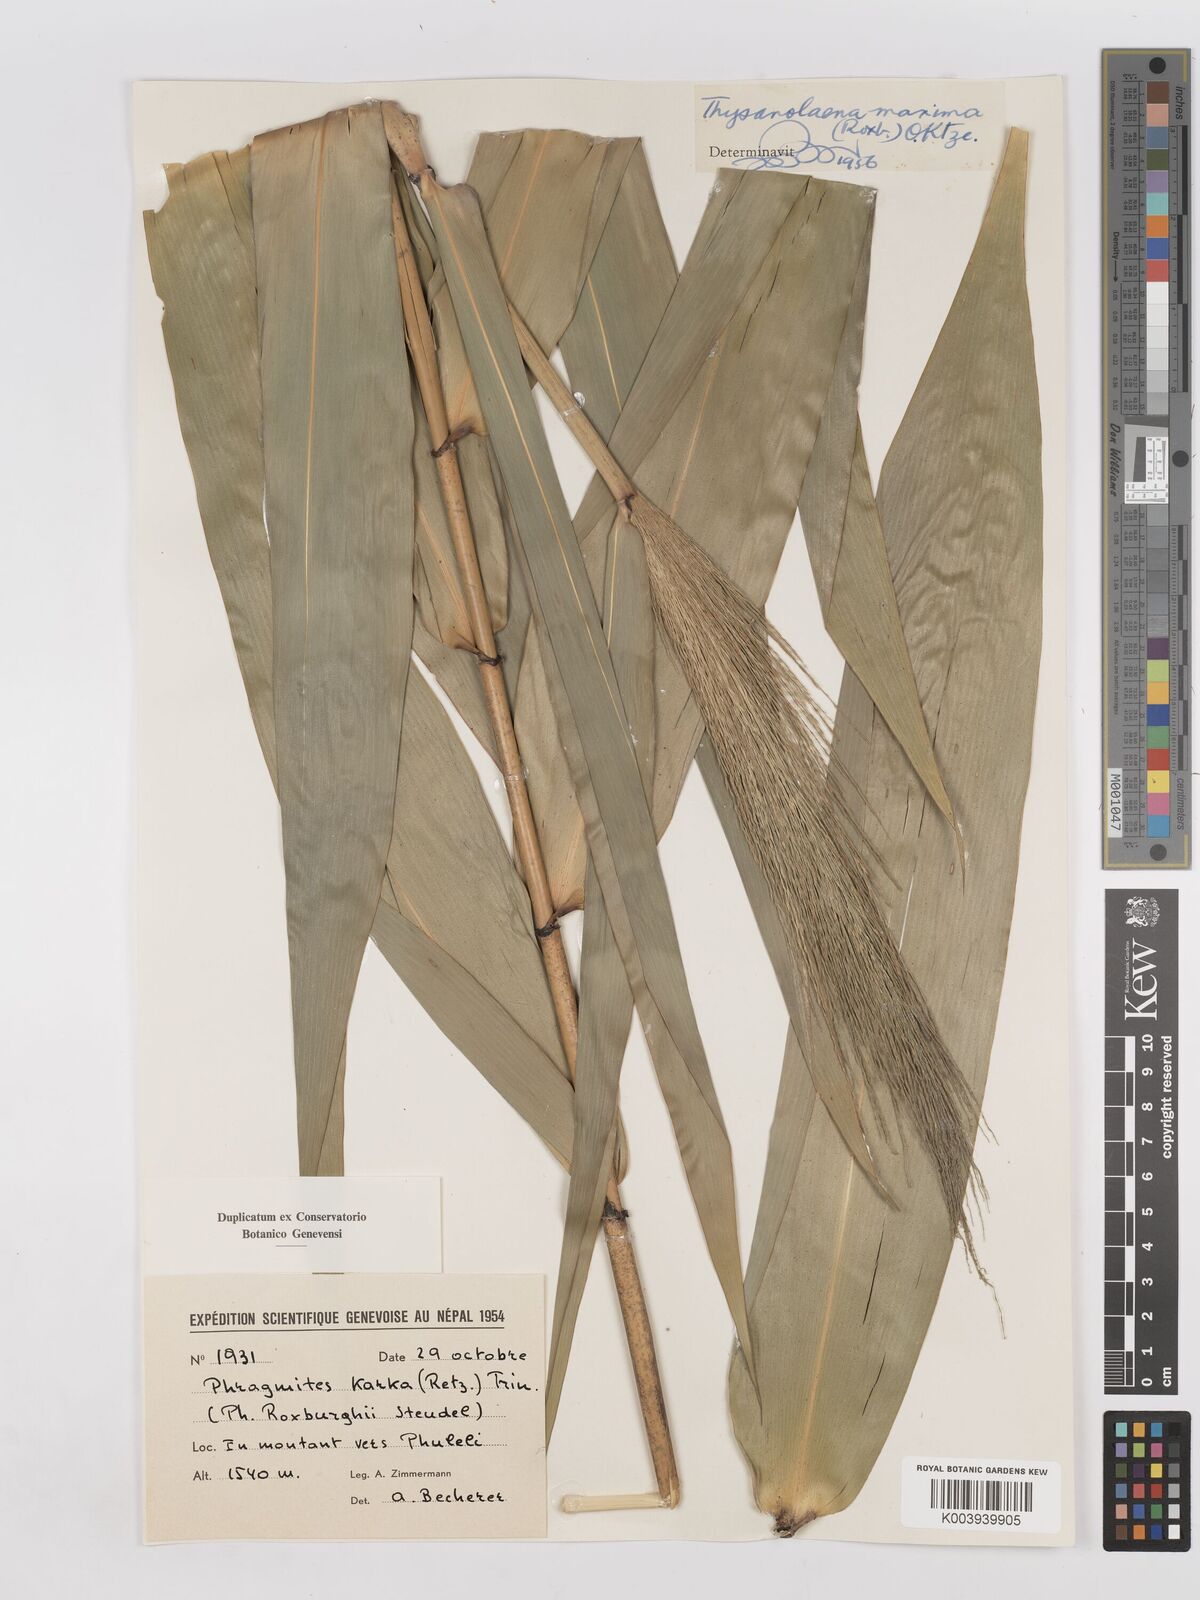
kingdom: Plantae
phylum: Tracheophyta
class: Liliopsida
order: Poales
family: Poaceae
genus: Thysanolaena
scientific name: Thysanolaena latifolia
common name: Tiger grass
